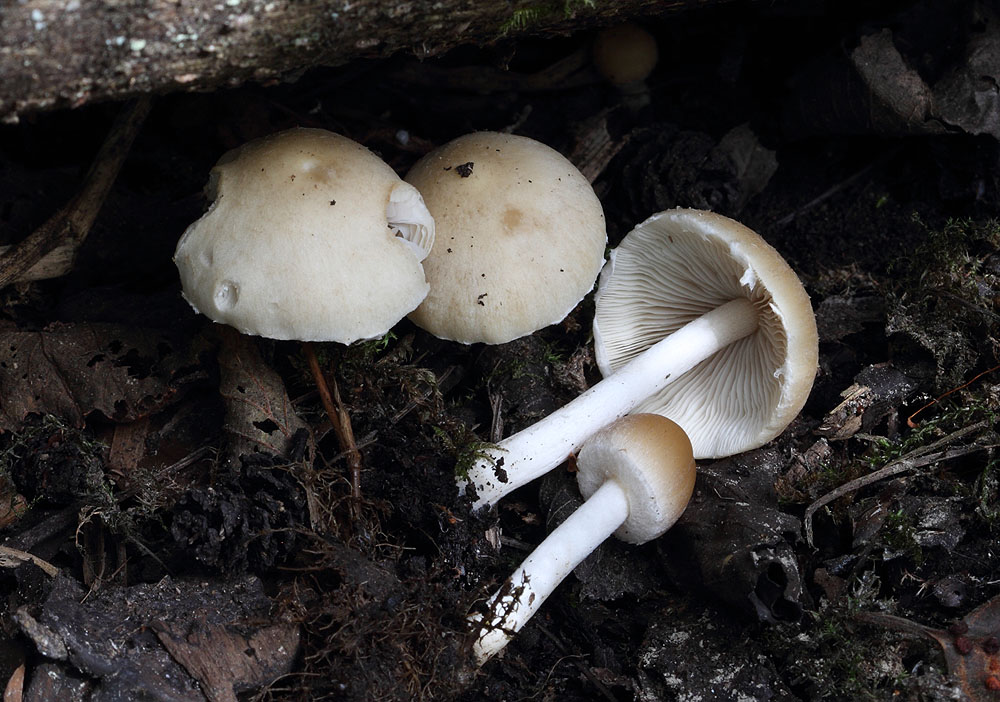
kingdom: Fungi
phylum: Basidiomycota
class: Agaricomycetes
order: Agaricales
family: Psathyrellaceae
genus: Candolleomyces
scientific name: Candolleomyces candolleanus
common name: Candolles mørkhat
